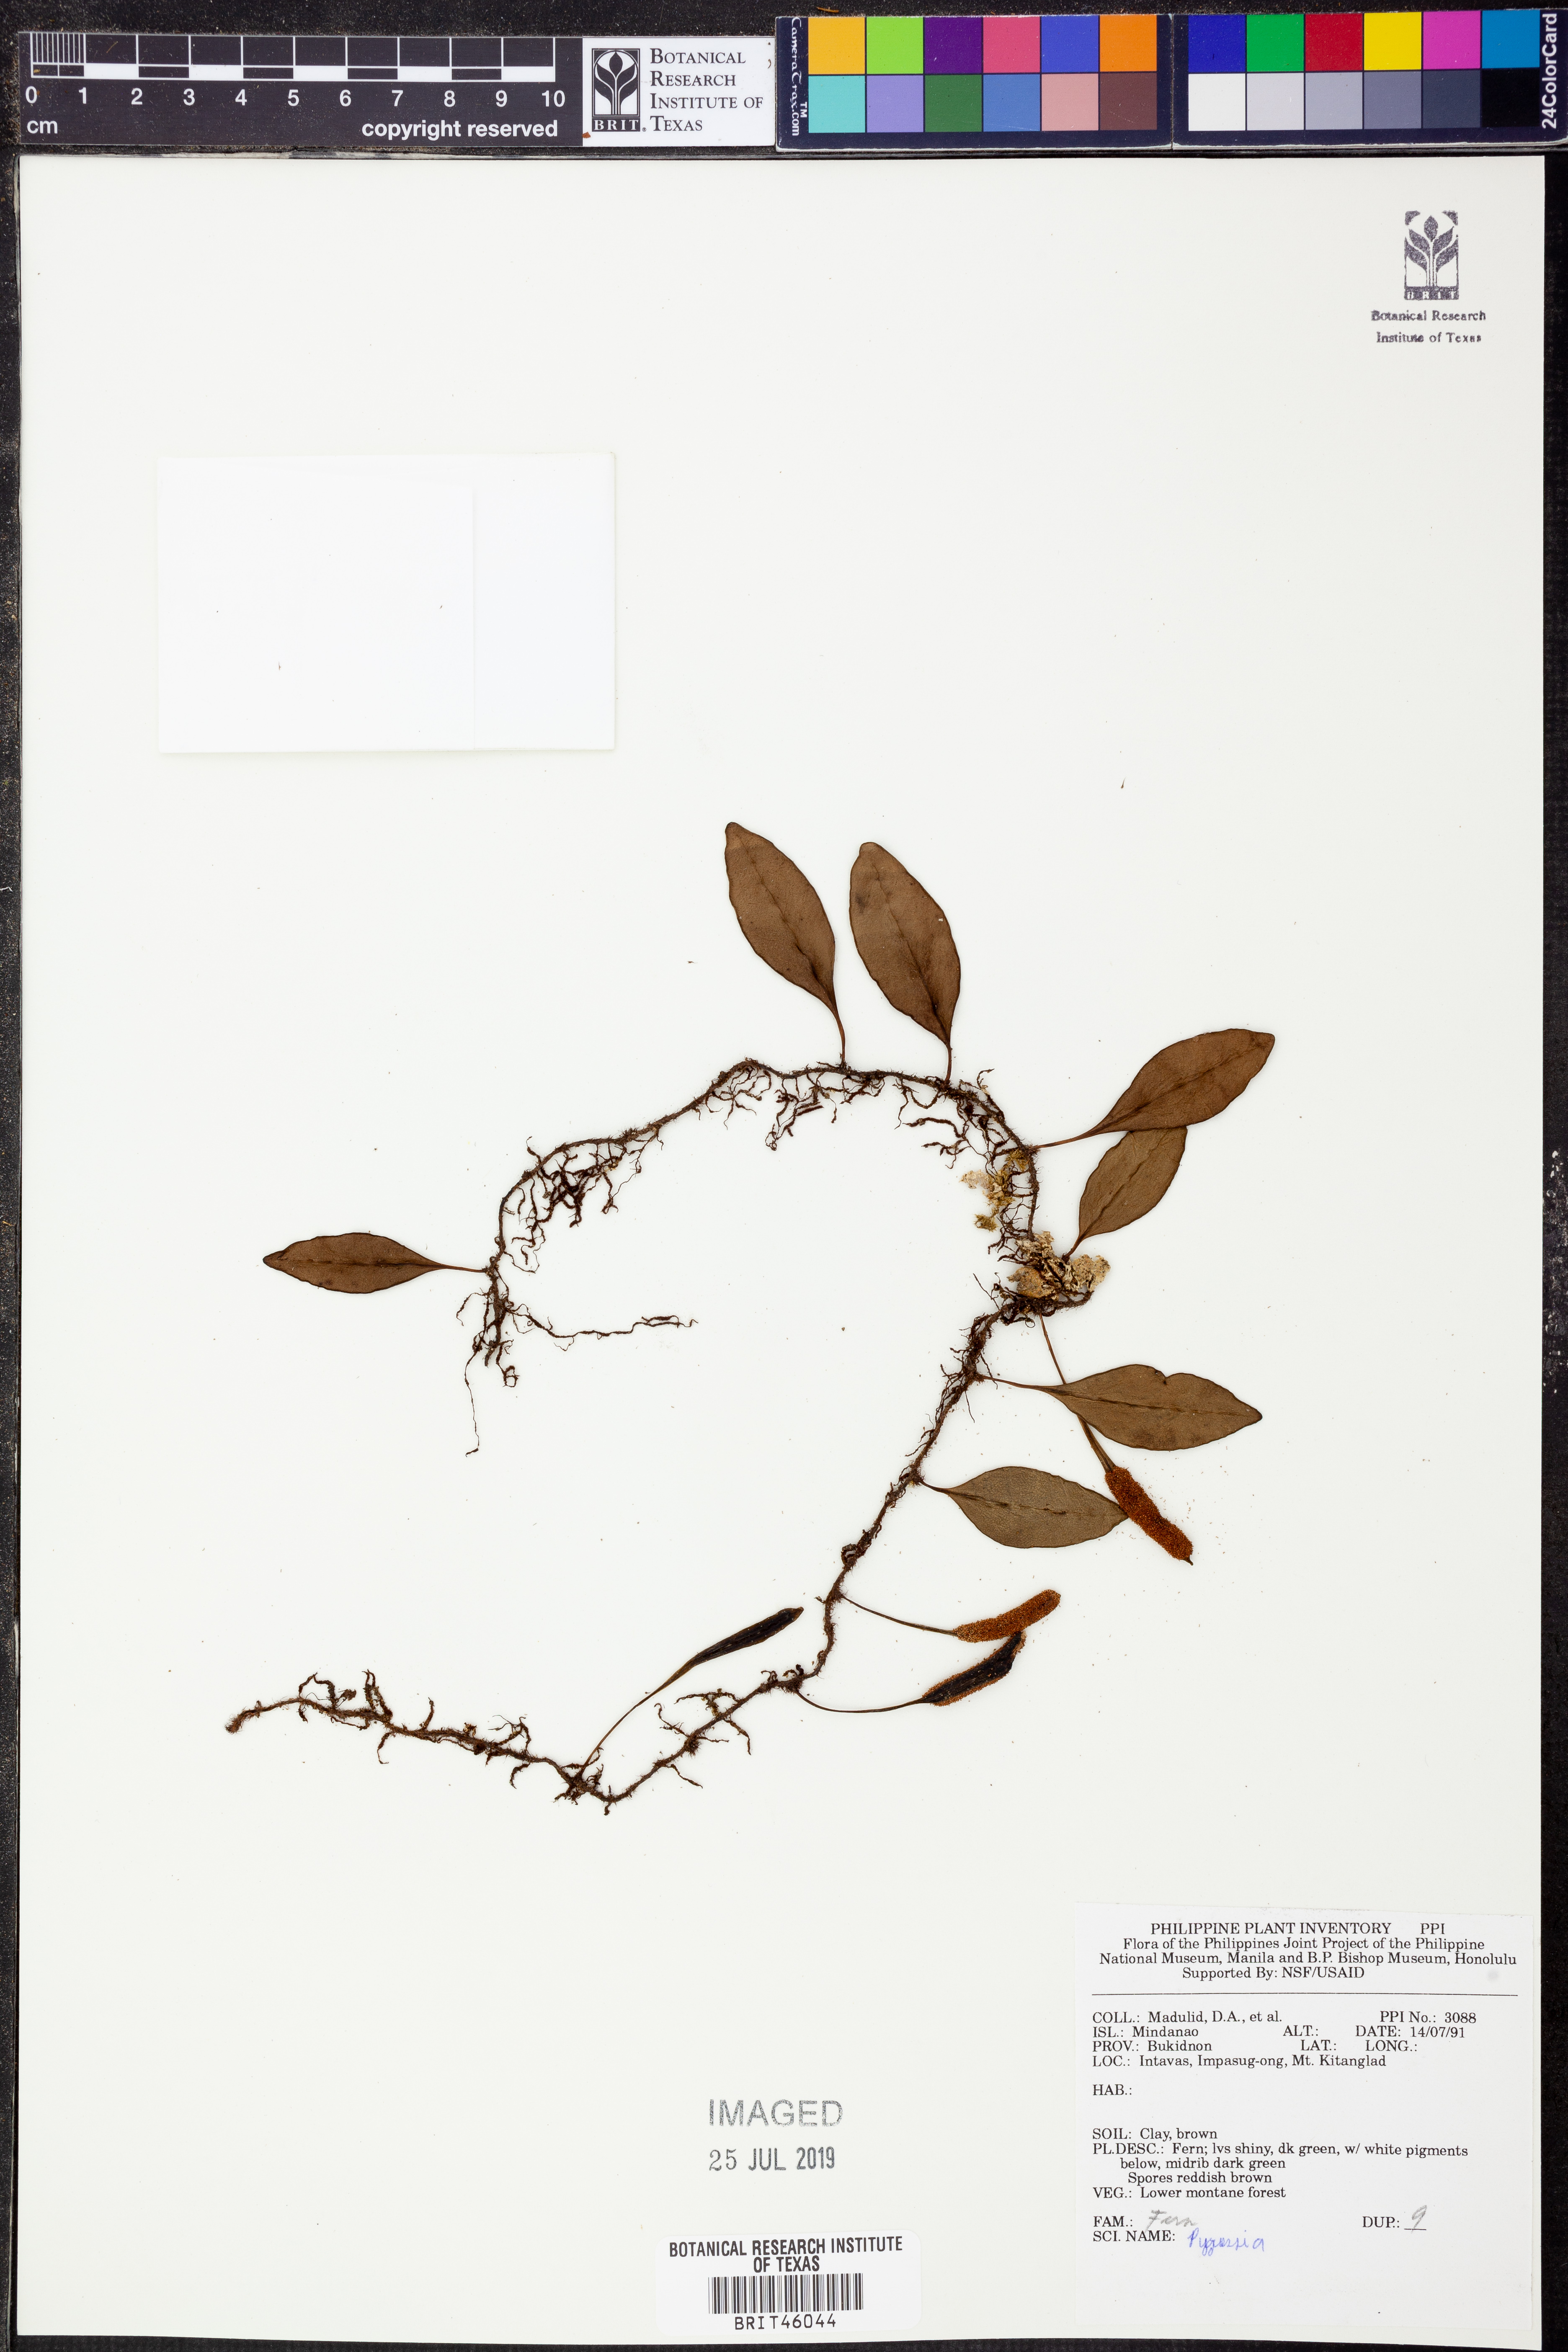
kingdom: Plantae
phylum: Tracheophyta
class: Polypodiopsida
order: Polypodiales
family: Polypodiaceae
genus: Pyrrosia
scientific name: Pyrrosia
